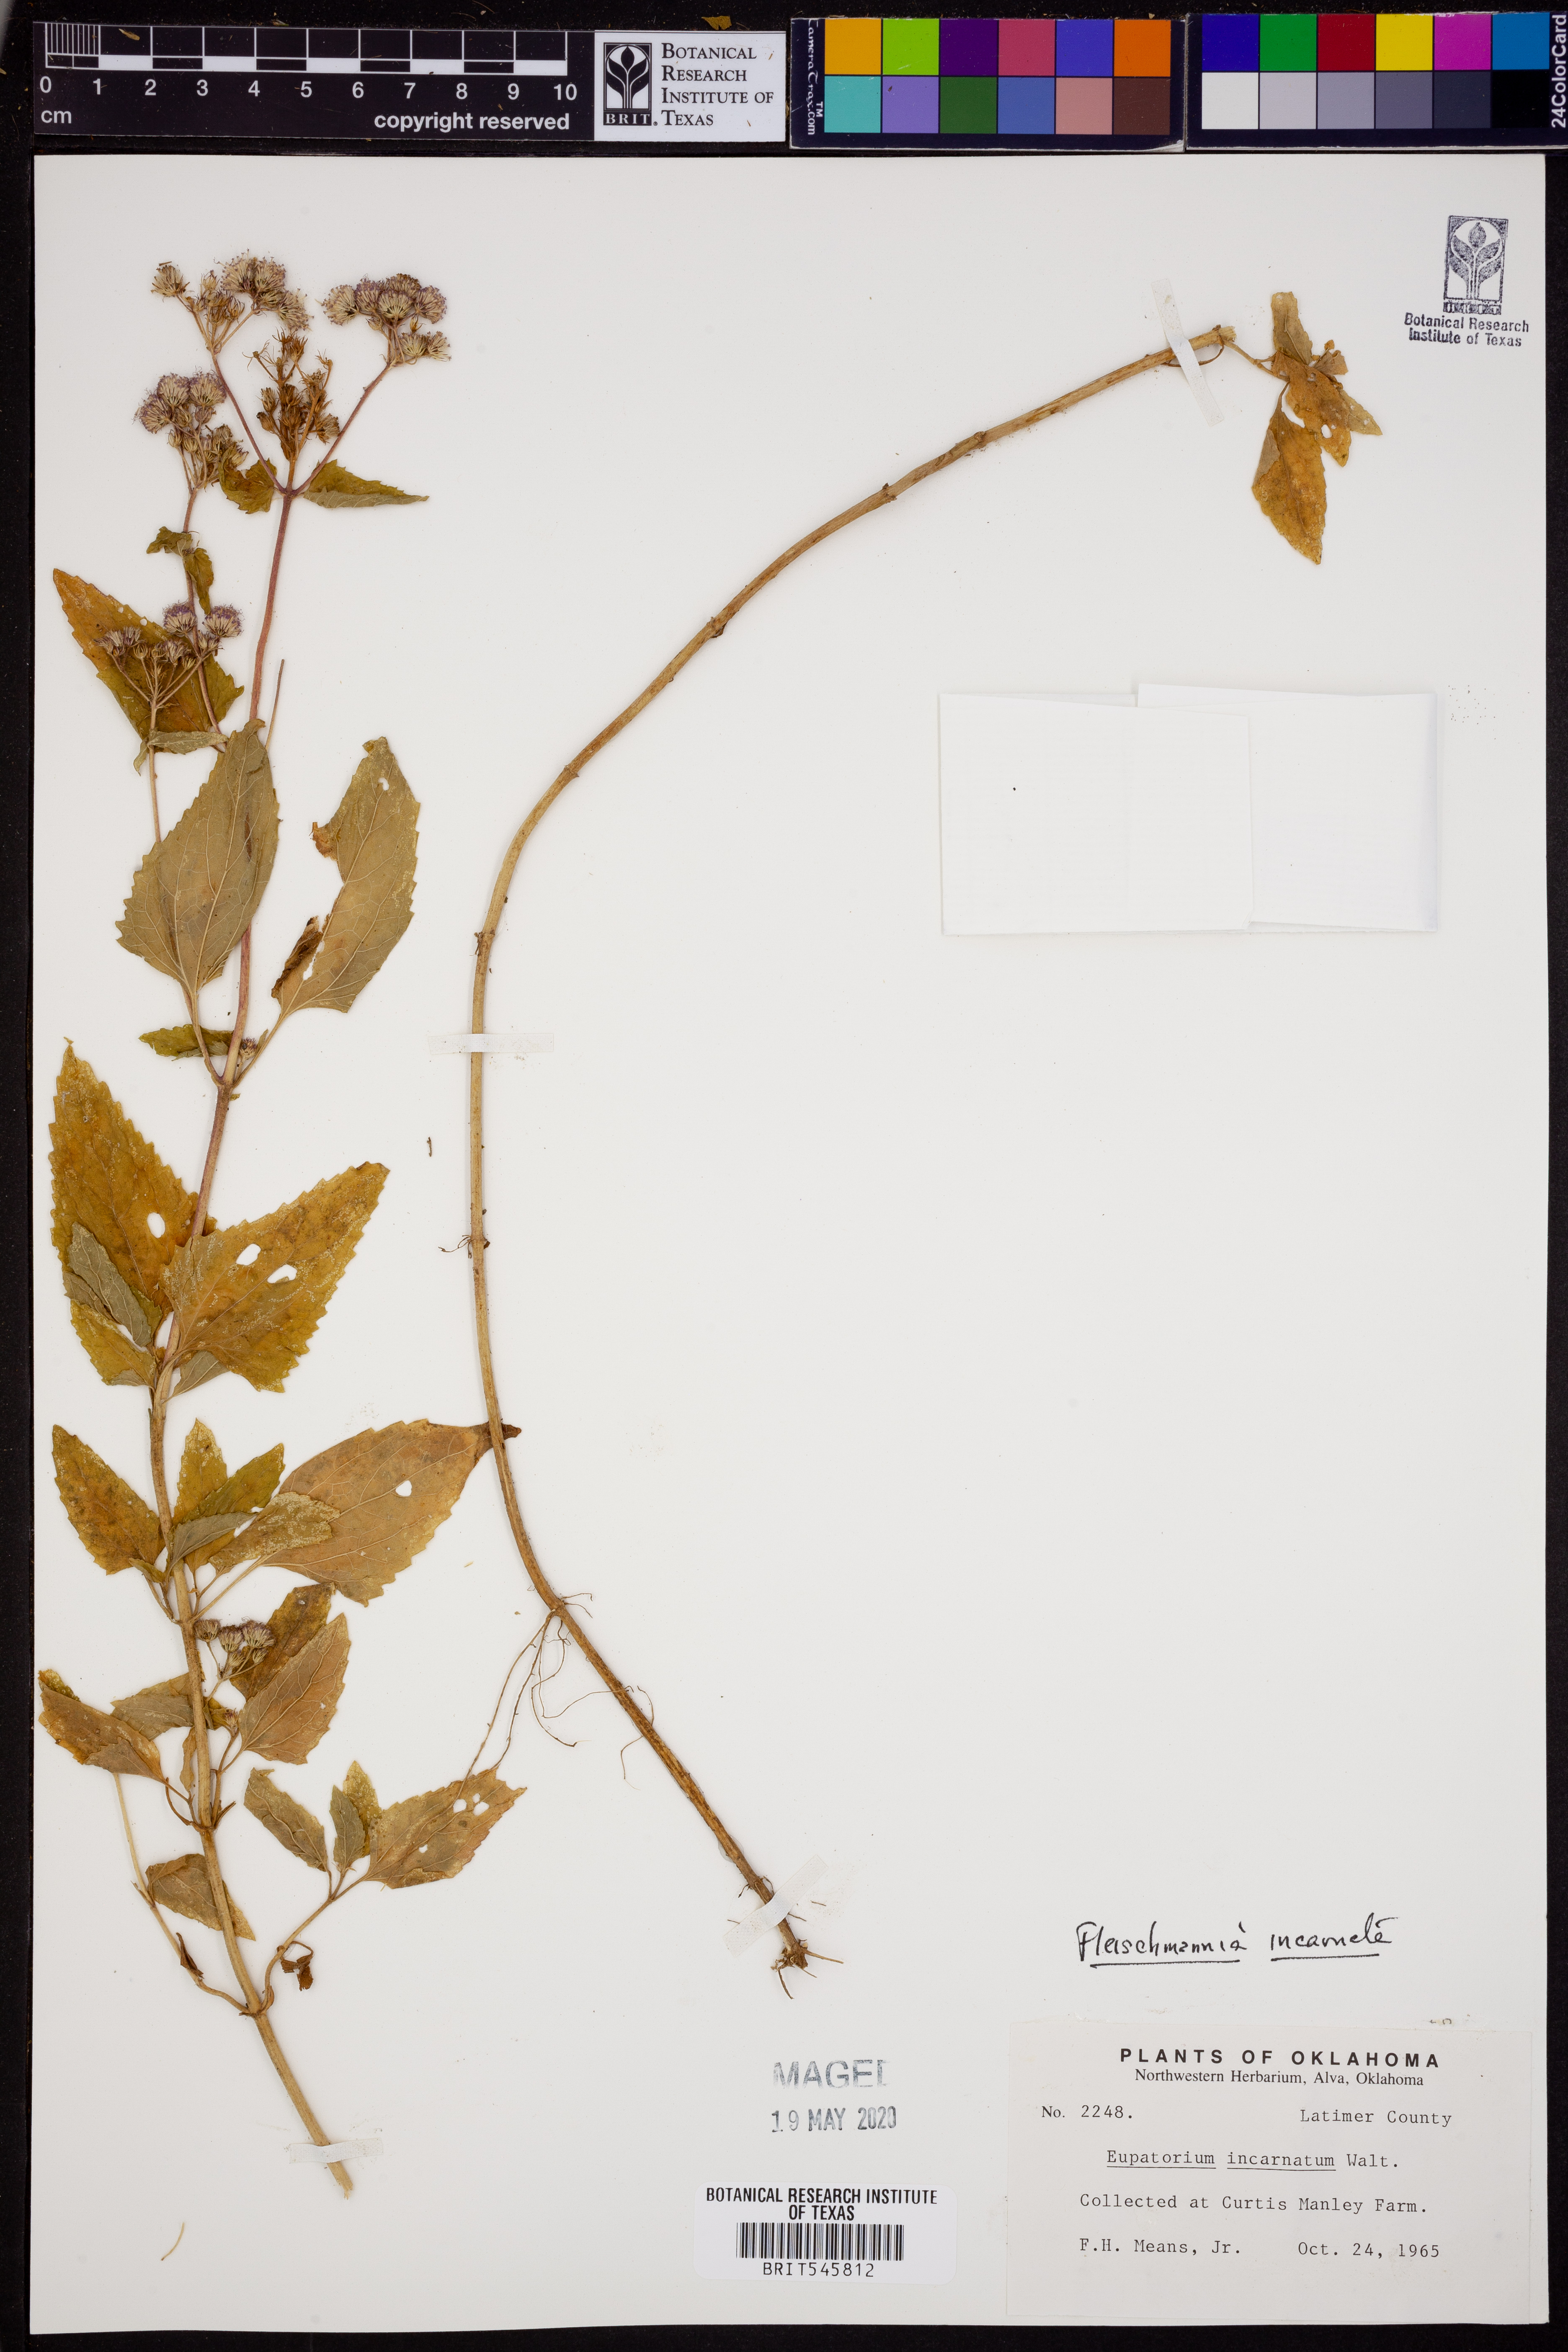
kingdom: Plantae
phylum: Tracheophyta
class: Magnoliopsida
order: Asterales
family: Asteraceae
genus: Fleischmannia
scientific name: Fleischmannia incarnata
